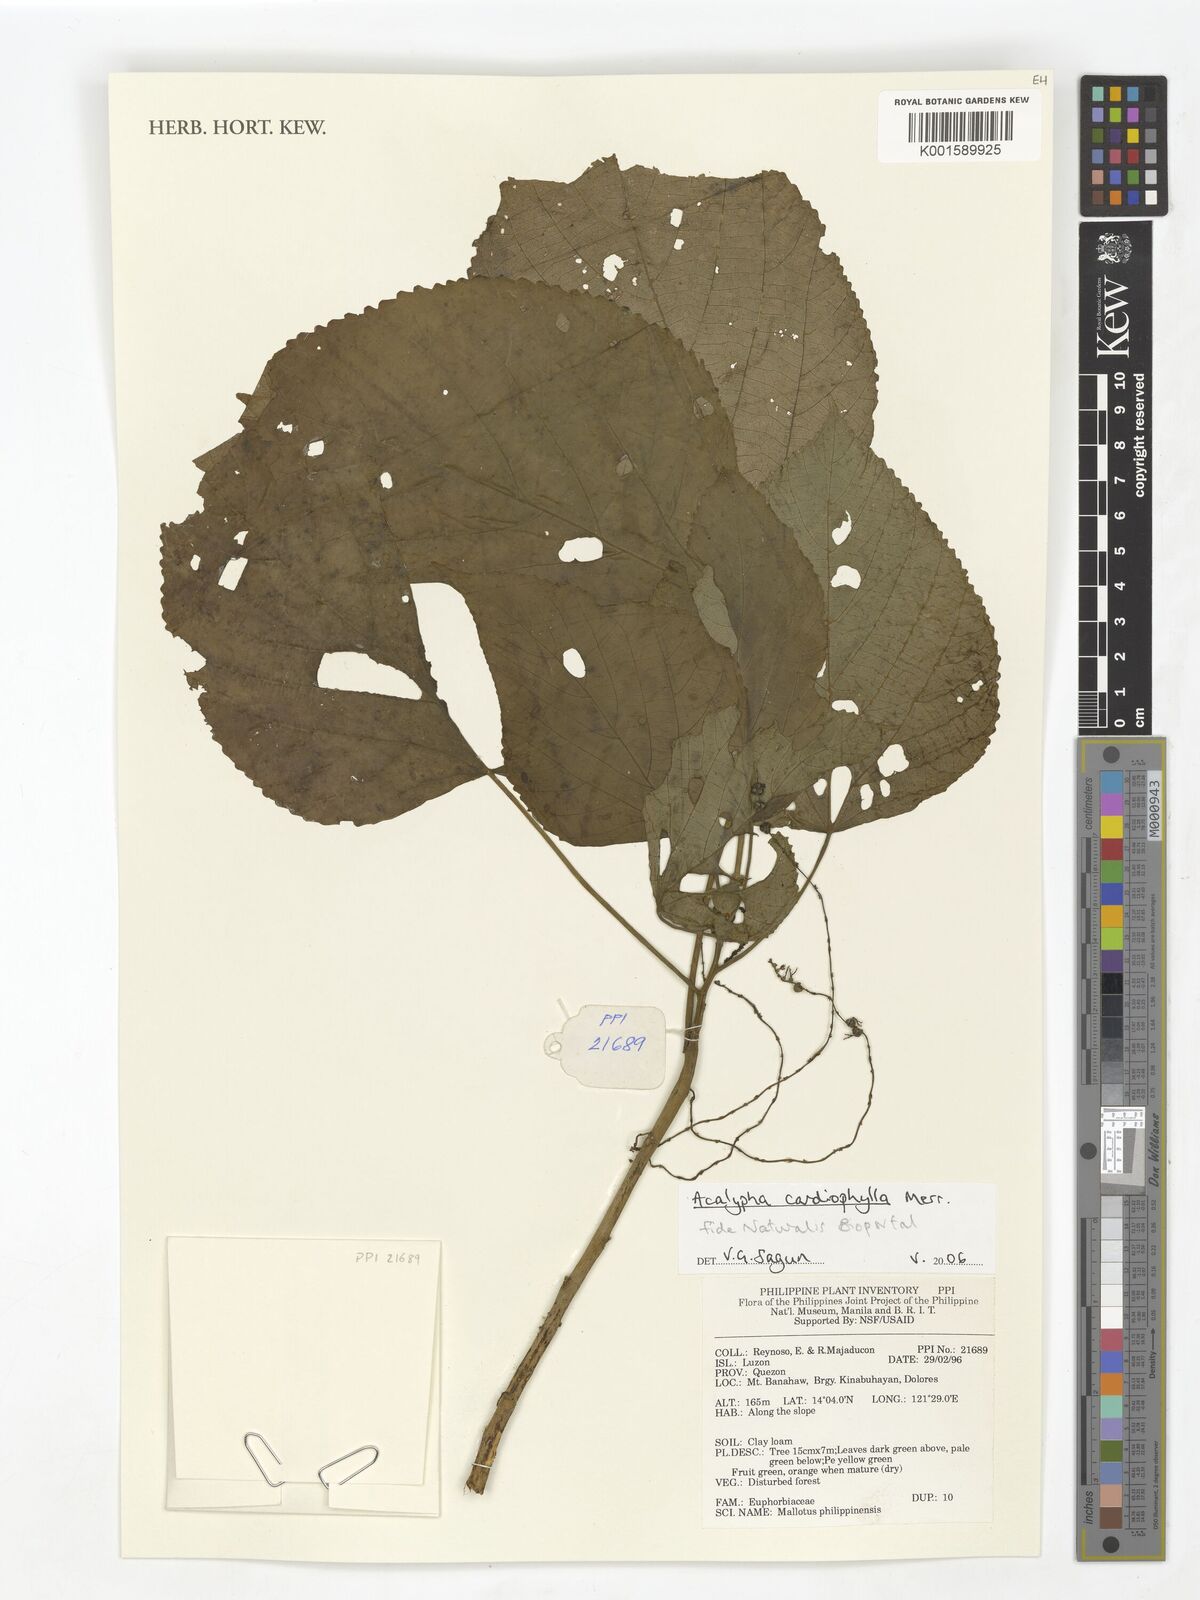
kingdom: Plantae
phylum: Tracheophyta
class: Magnoliopsida
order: Malpighiales
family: Euphorbiaceae
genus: Acalypha
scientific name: Acalypha cardiophylla
